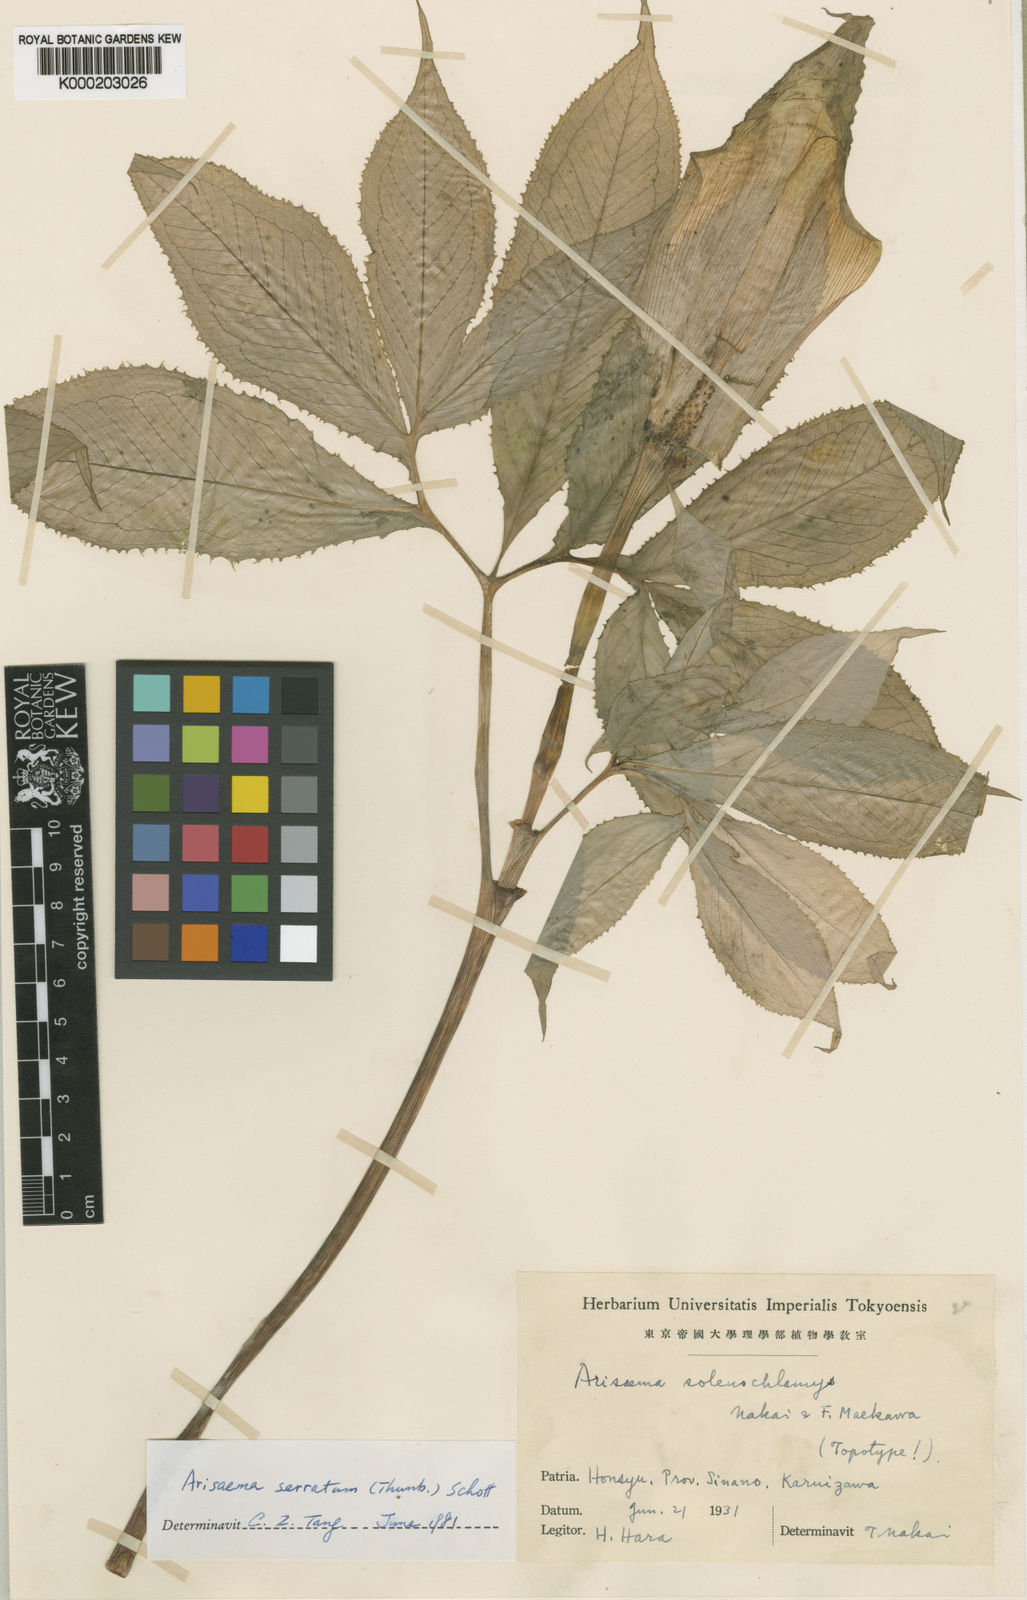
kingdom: Plantae
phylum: Tracheophyta
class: Liliopsida
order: Alismatales
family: Araceae
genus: Arisaema
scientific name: Arisaema serratum
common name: Japanese arisaema
